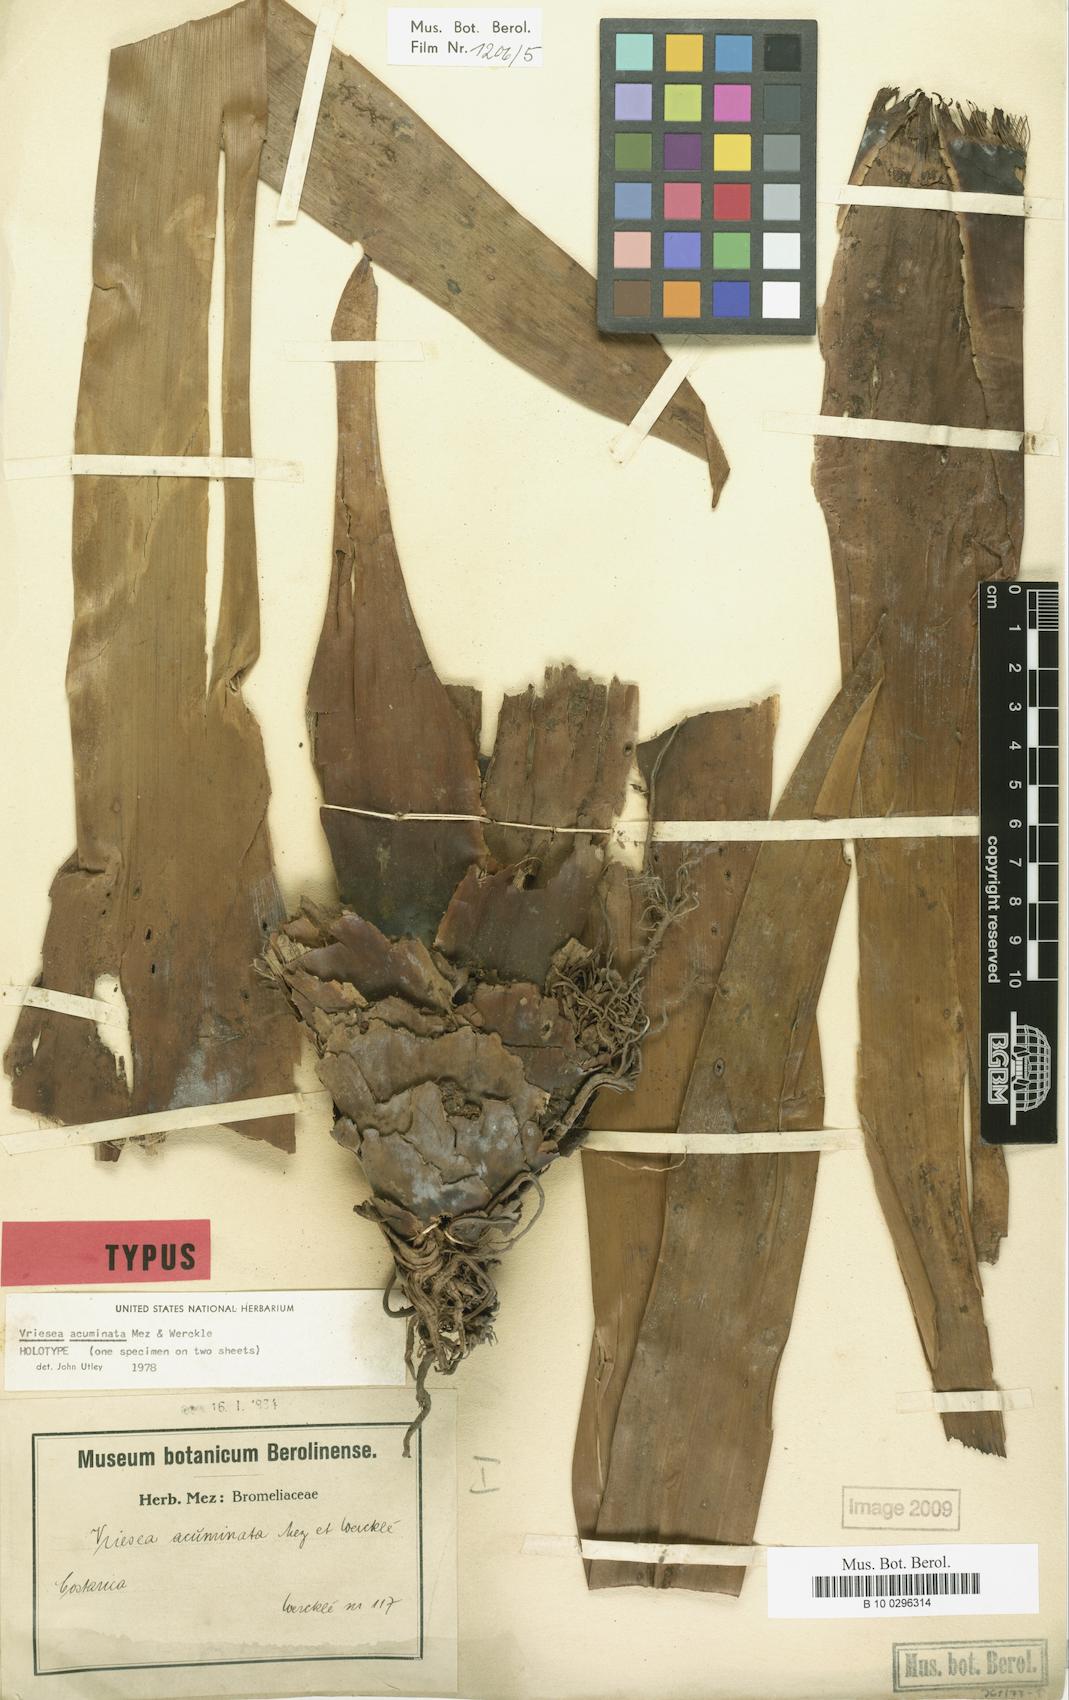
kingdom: Plantae
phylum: Tracheophyta
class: Liliopsida
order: Poales
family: Bromeliaceae
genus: Werauhia
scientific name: Werauhia acuminata
